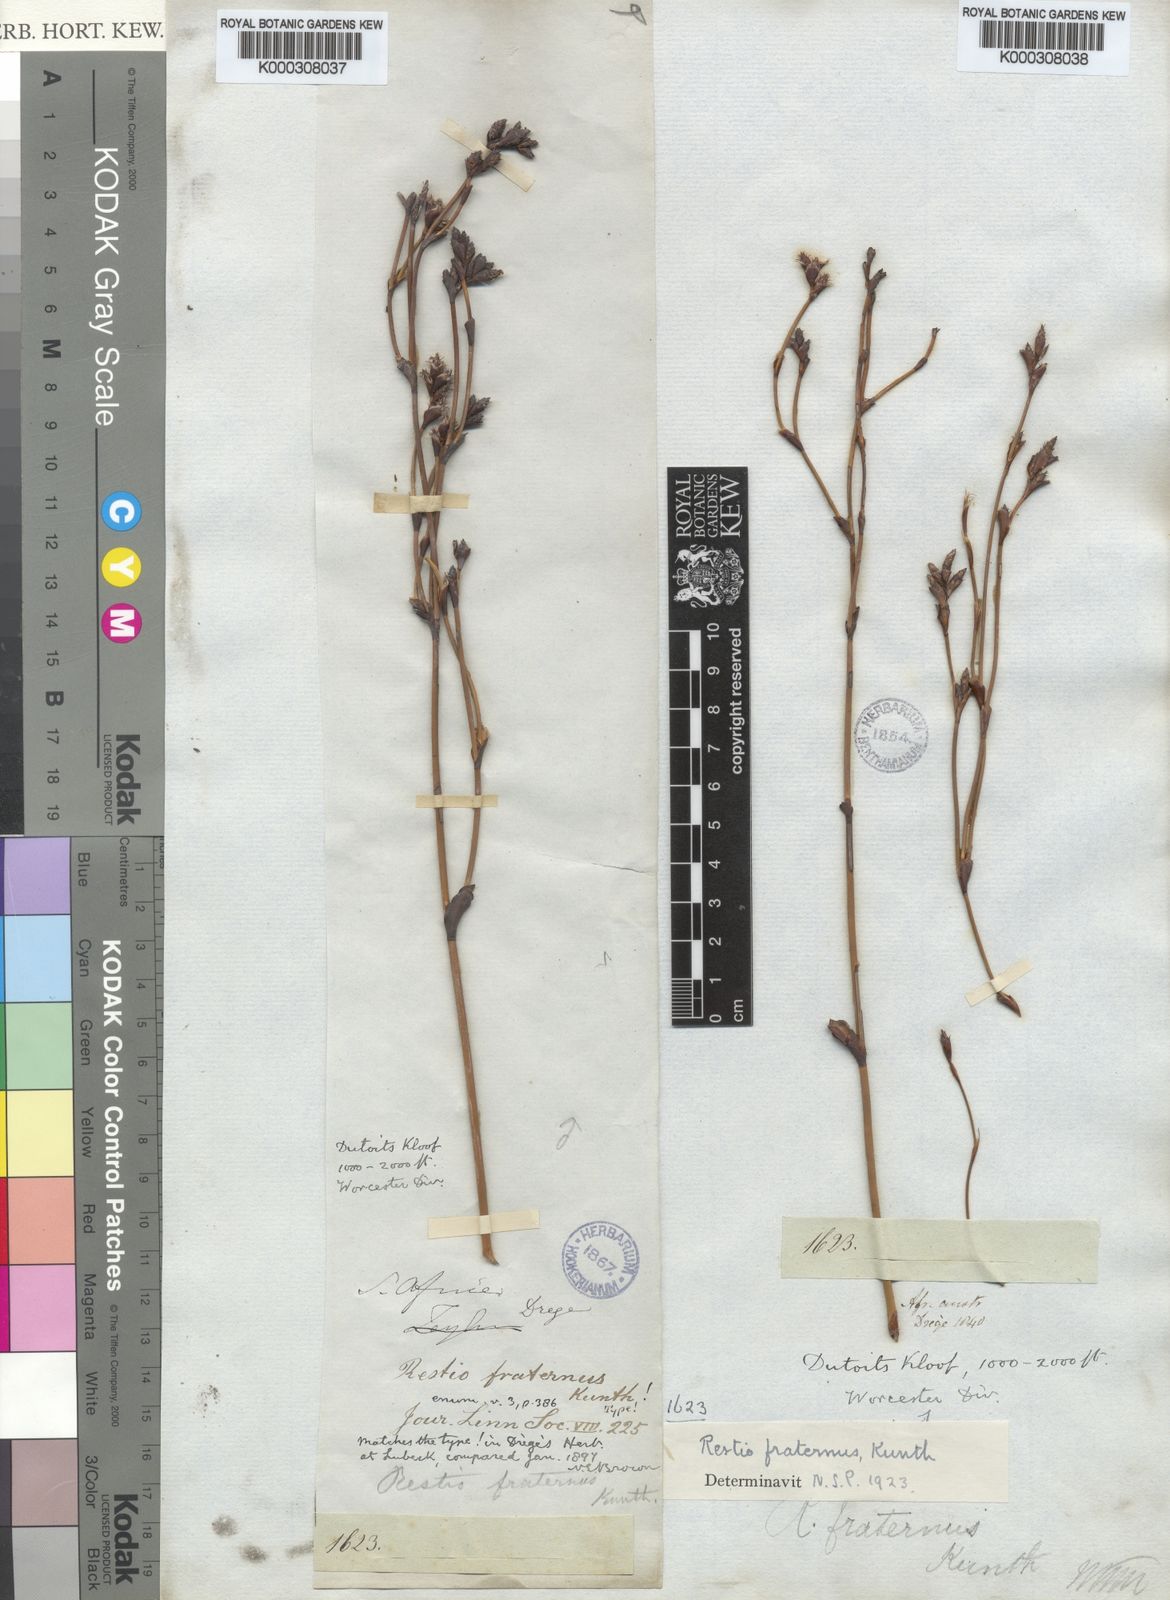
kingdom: Plantae
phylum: Tracheophyta
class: Liliopsida
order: Poales
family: Restionaceae
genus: Restio
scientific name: Restio fraternus
